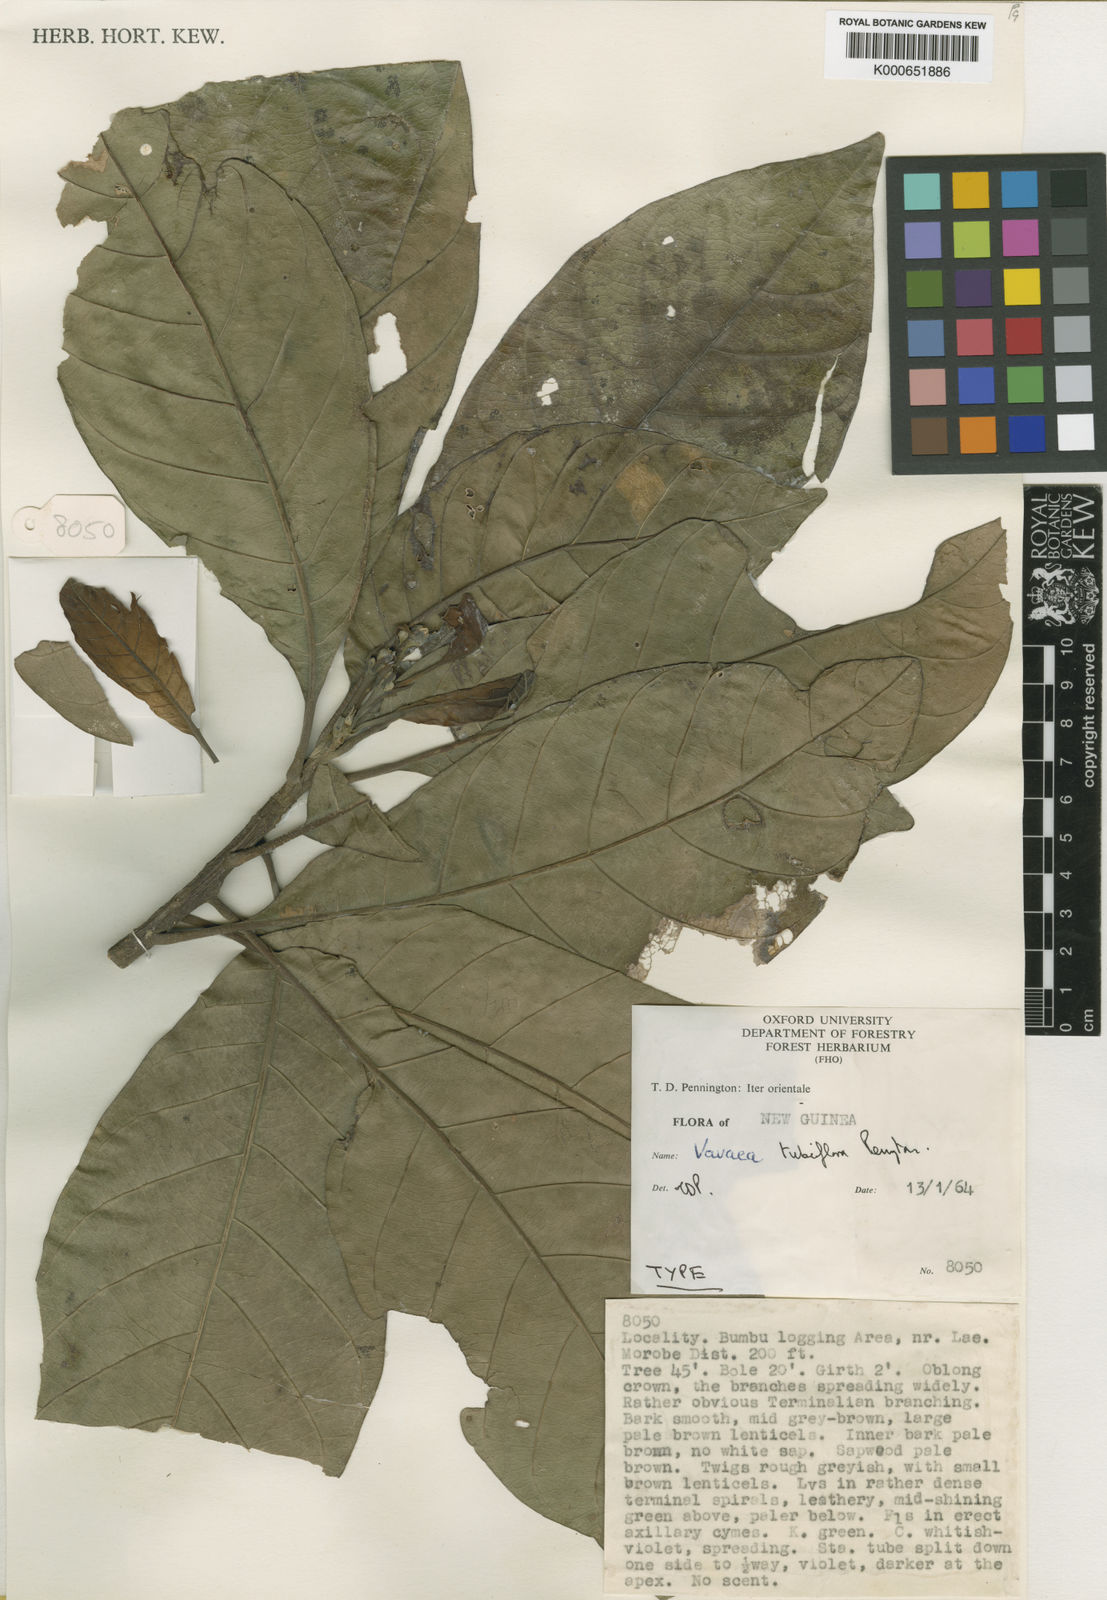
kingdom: Plantae
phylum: Tracheophyta
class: Magnoliopsida
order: Sapindales
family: Meliaceae
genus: Vavaea
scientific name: Vavaea tubiflora
